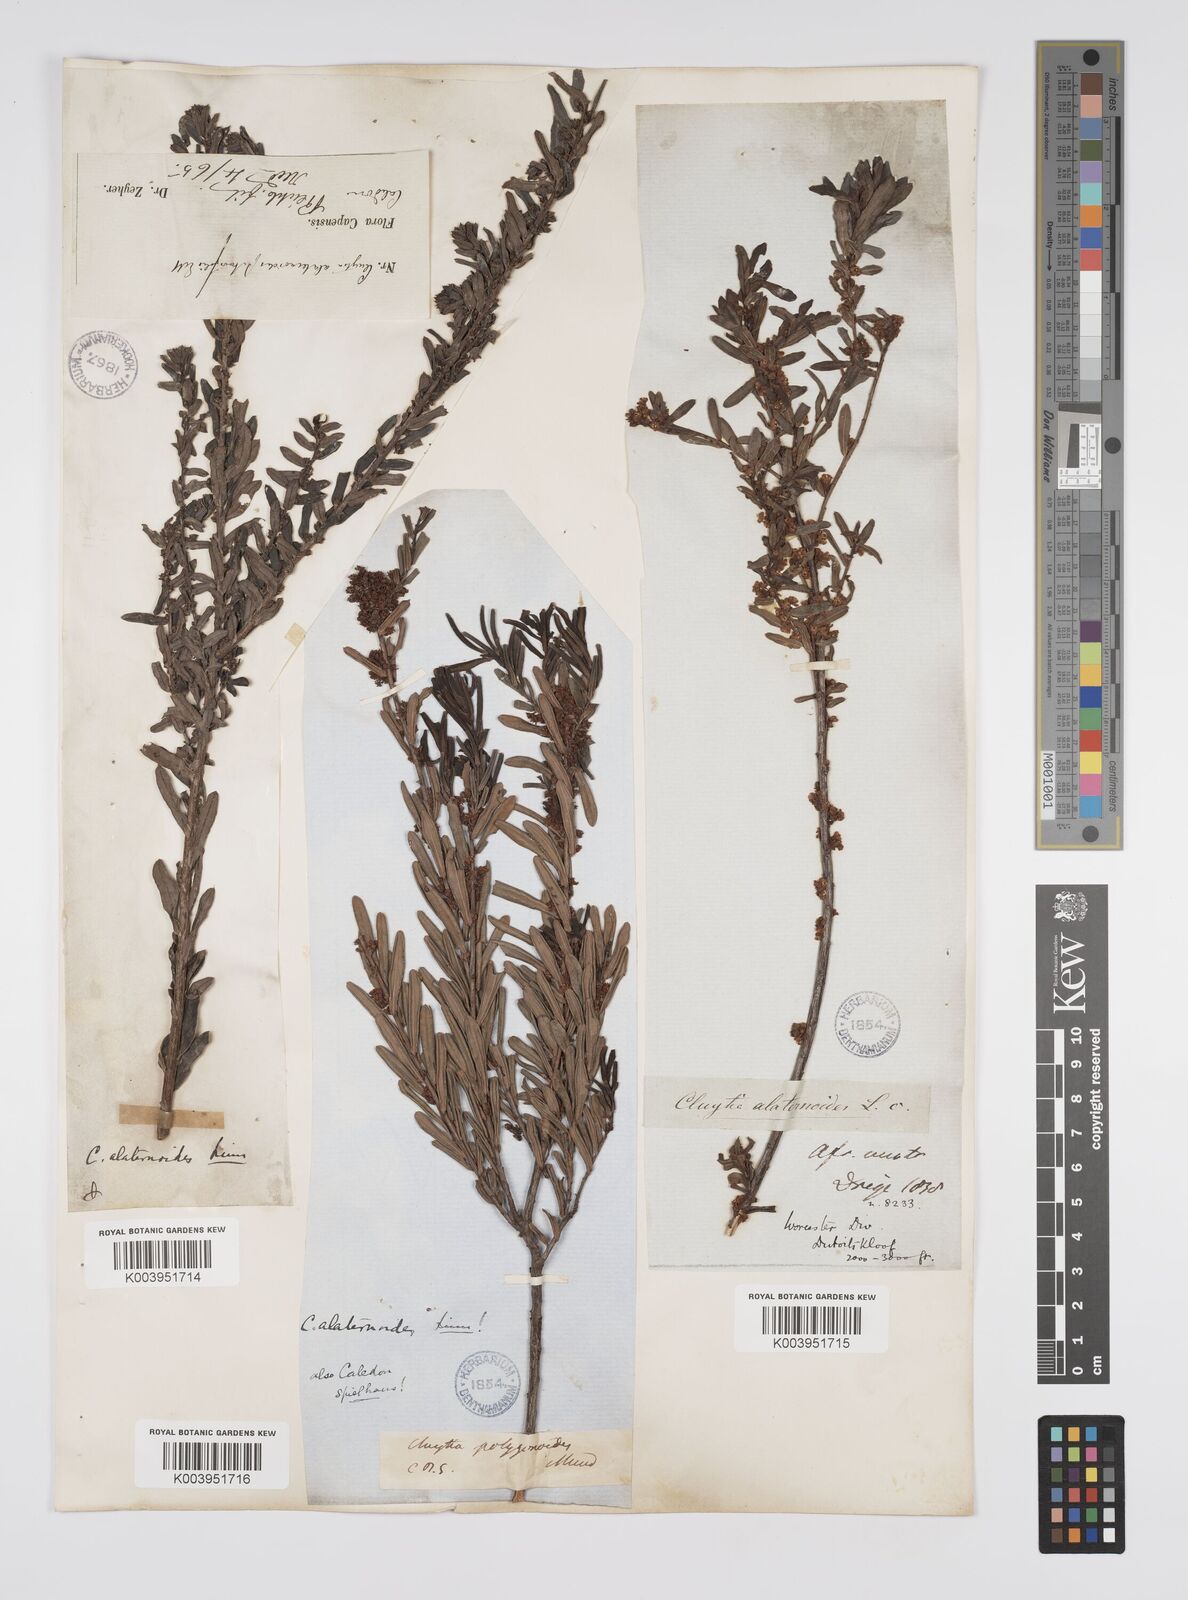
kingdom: Plantae
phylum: Tracheophyta
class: Magnoliopsida
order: Malpighiales
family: Peraceae
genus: Clutia
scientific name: Clutia alaternoides
